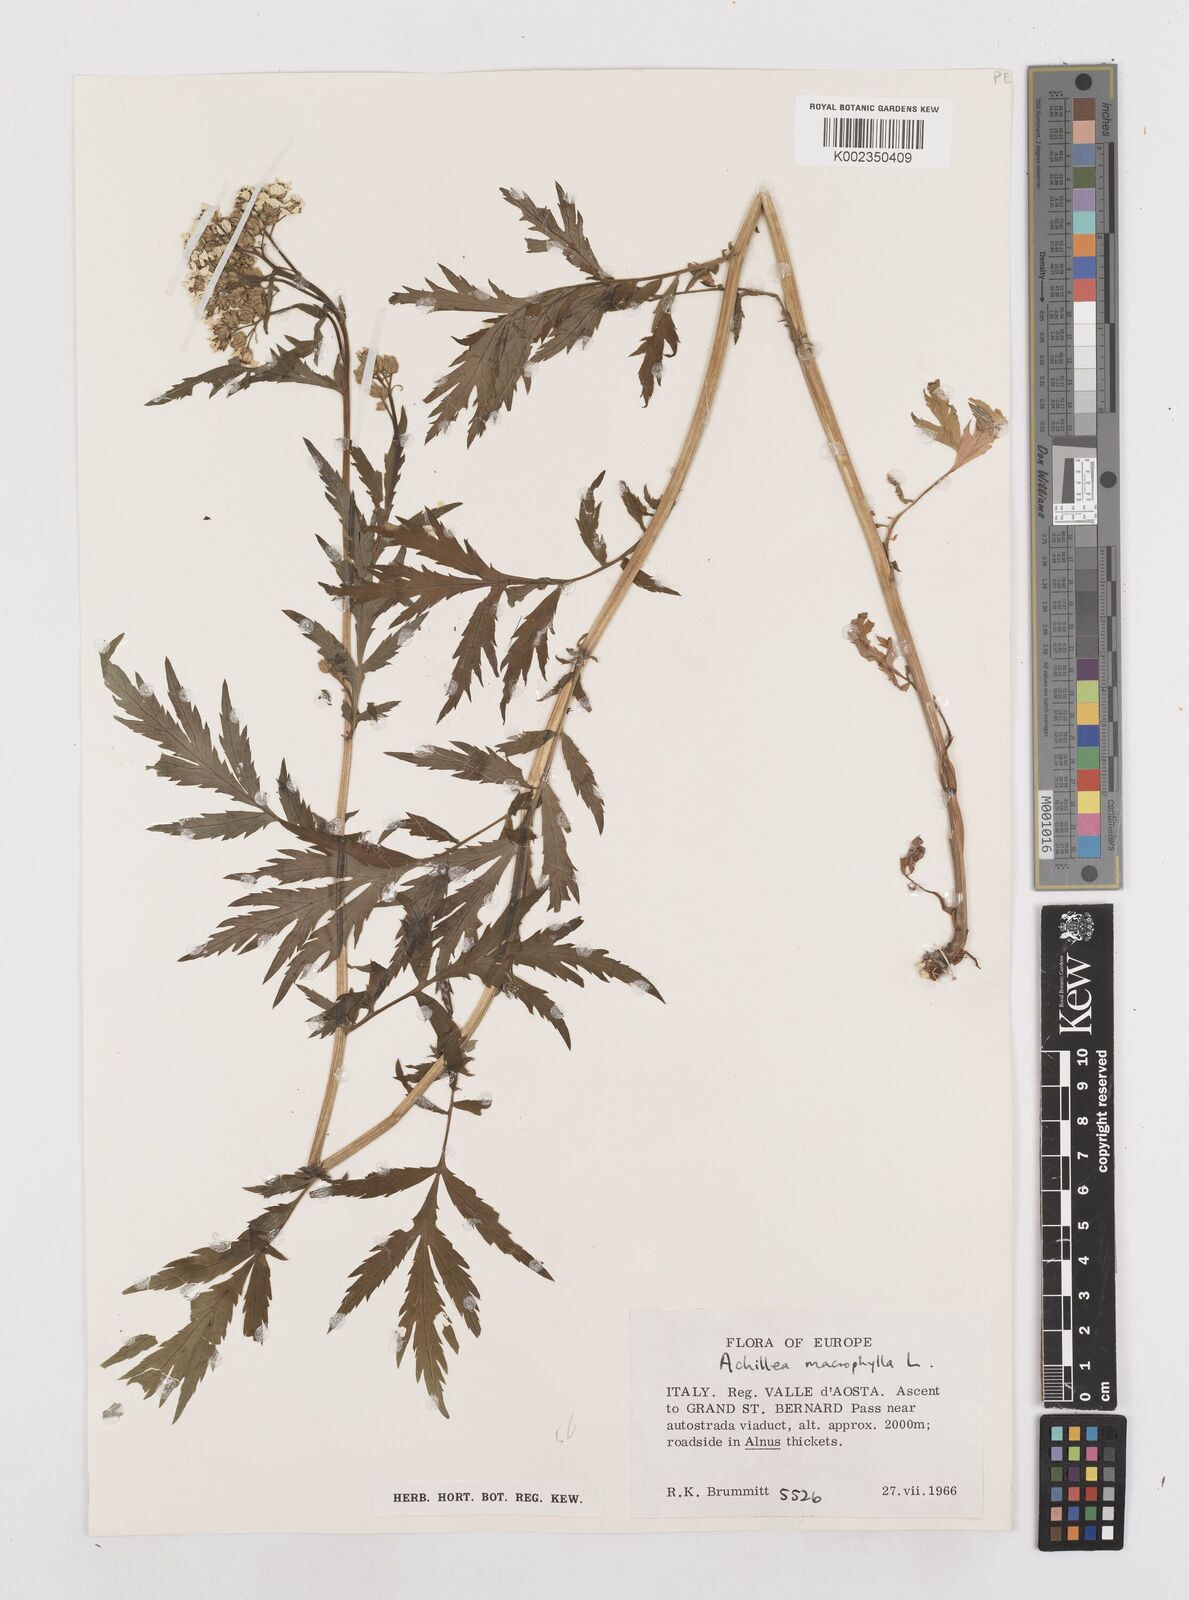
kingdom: Plantae
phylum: Tracheophyta
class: Magnoliopsida
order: Asterales
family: Asteraceae
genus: Achillea
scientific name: Achillea macrophylla
